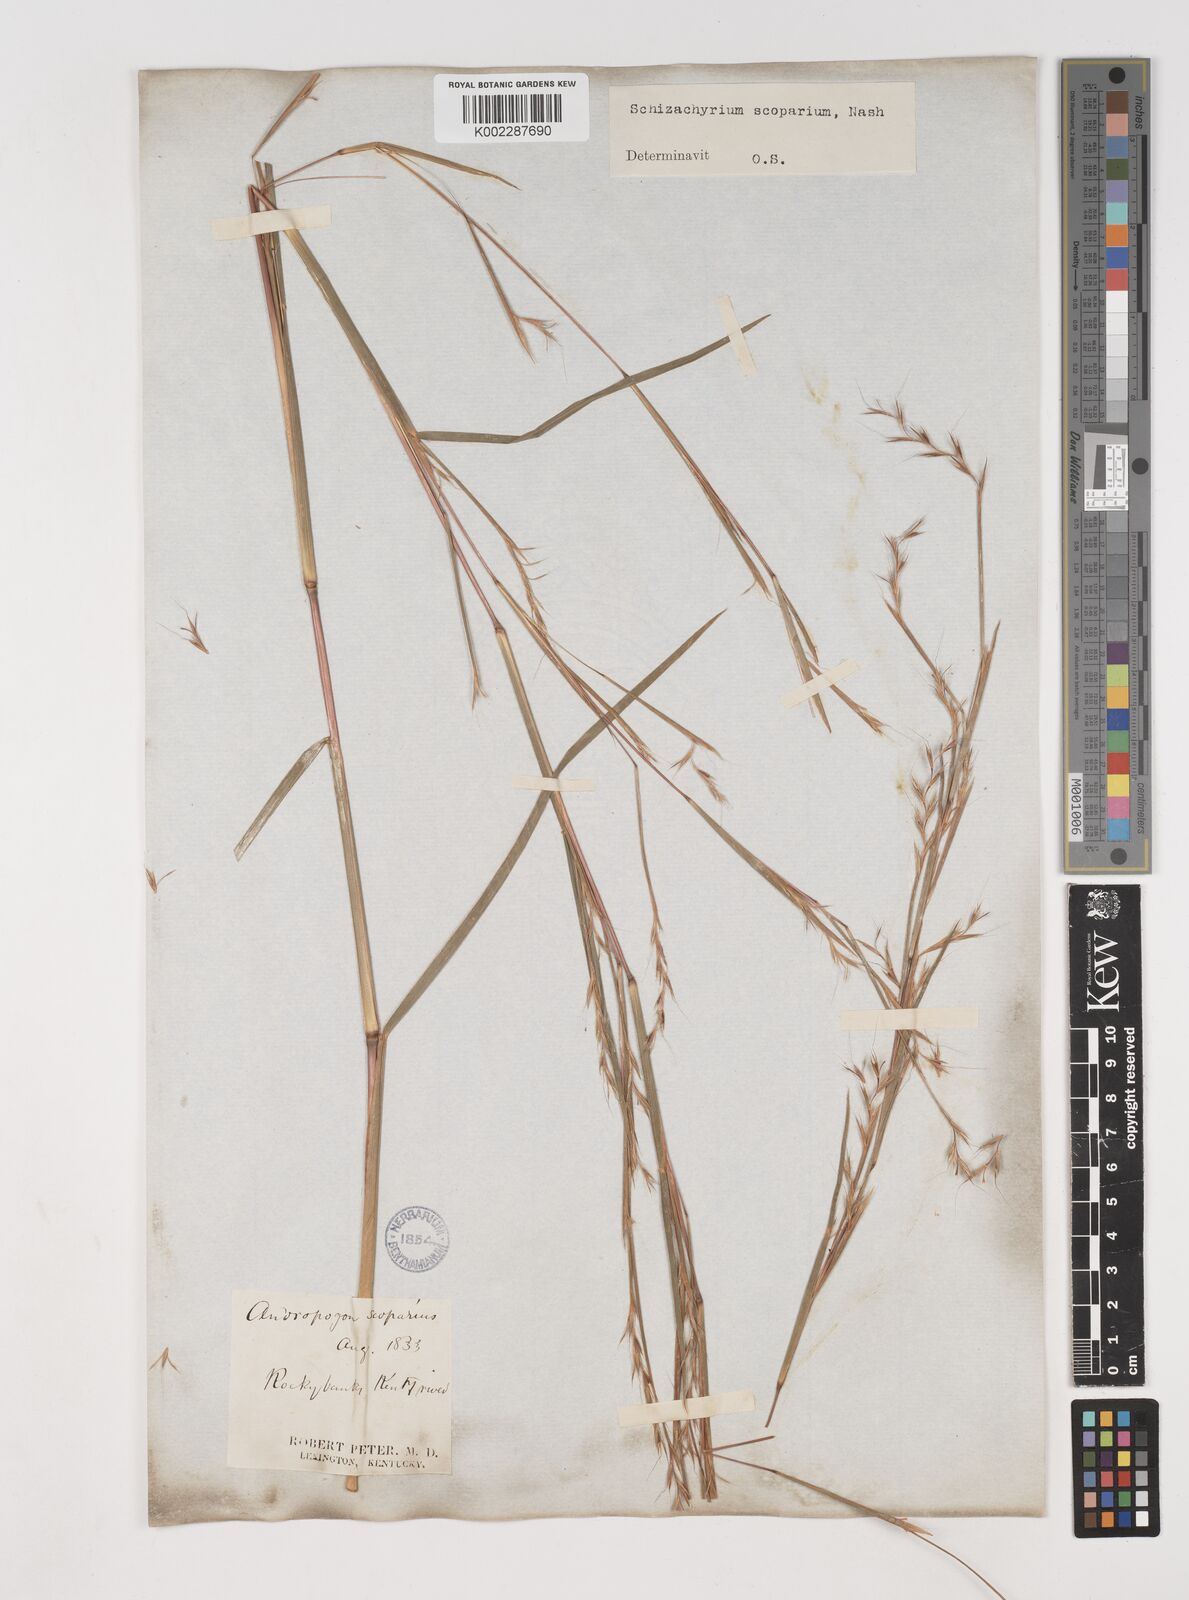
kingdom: Plantae
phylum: Tracheophyta
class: Liliopsida
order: Poales
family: Poaceae
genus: Schizachyrium
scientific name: Schizachyrium scoparium
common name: Little bluestem
